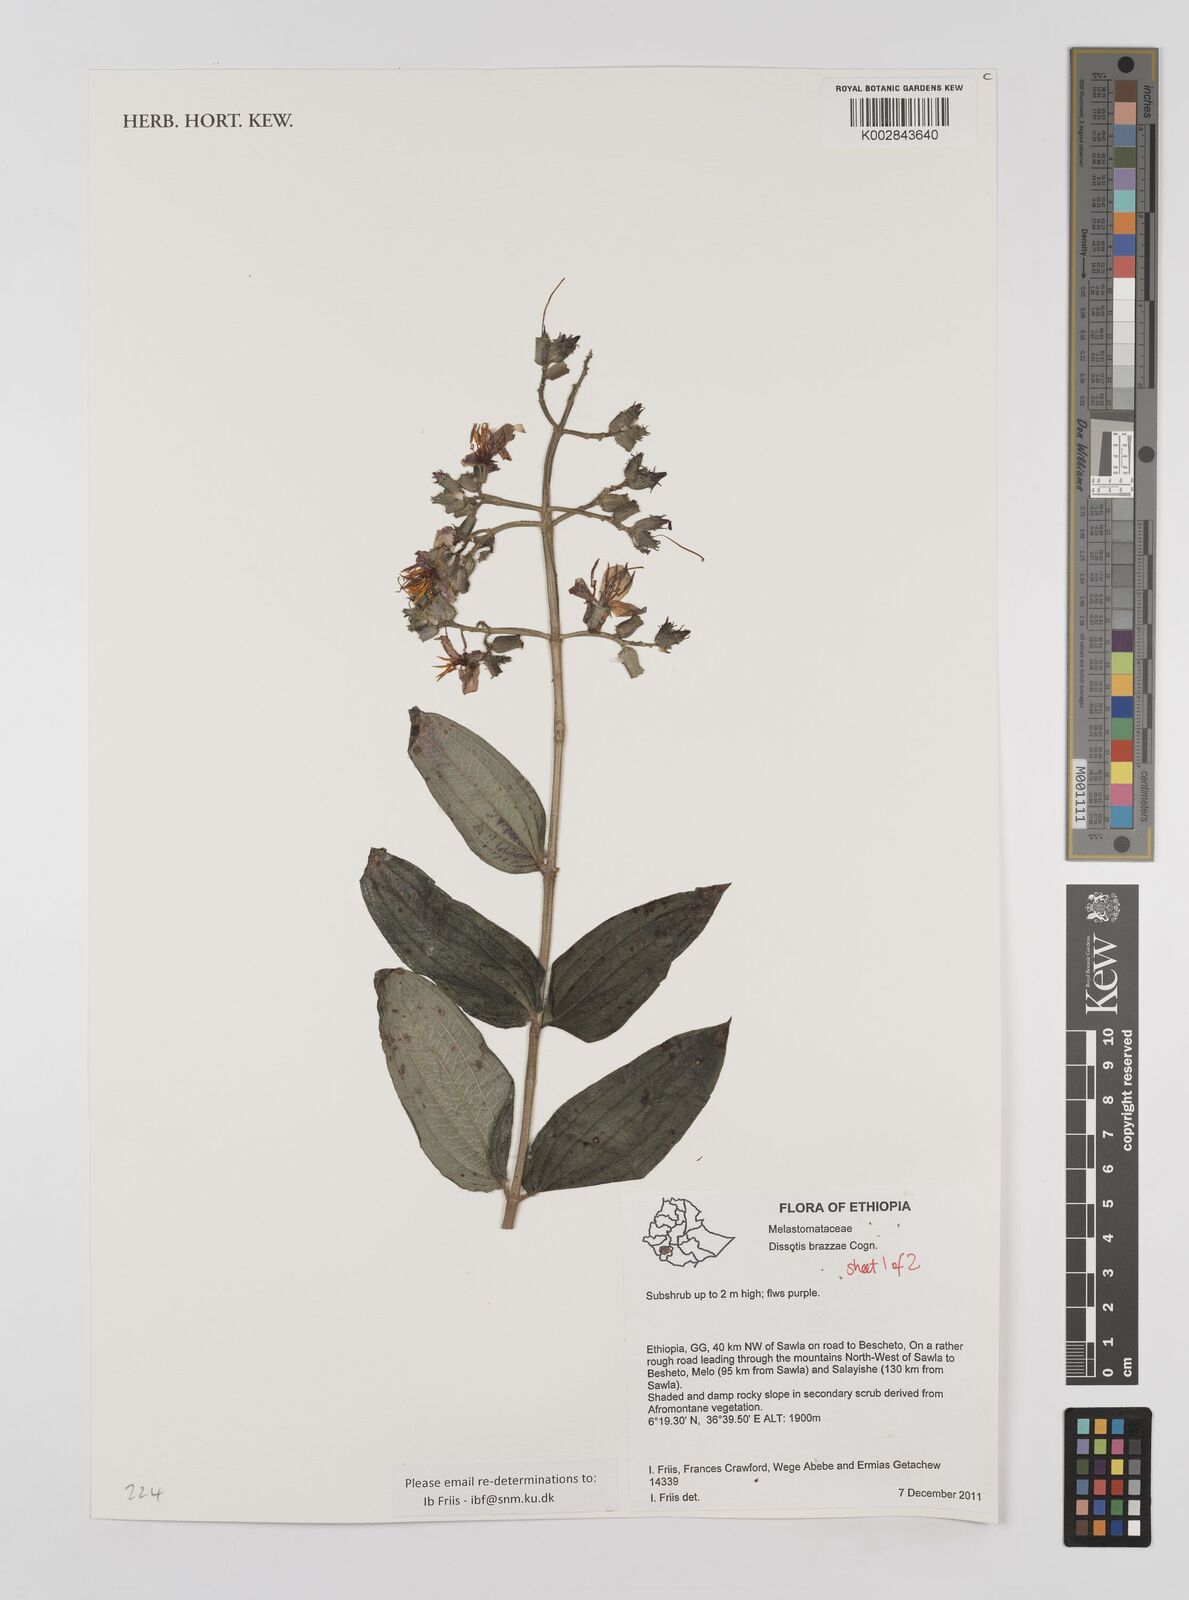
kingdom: Plantae
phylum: Tracheophyta
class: Magnoliopsida
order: Myrtales
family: Melastomataceae
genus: Dupineta
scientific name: Dupineta brazzae
